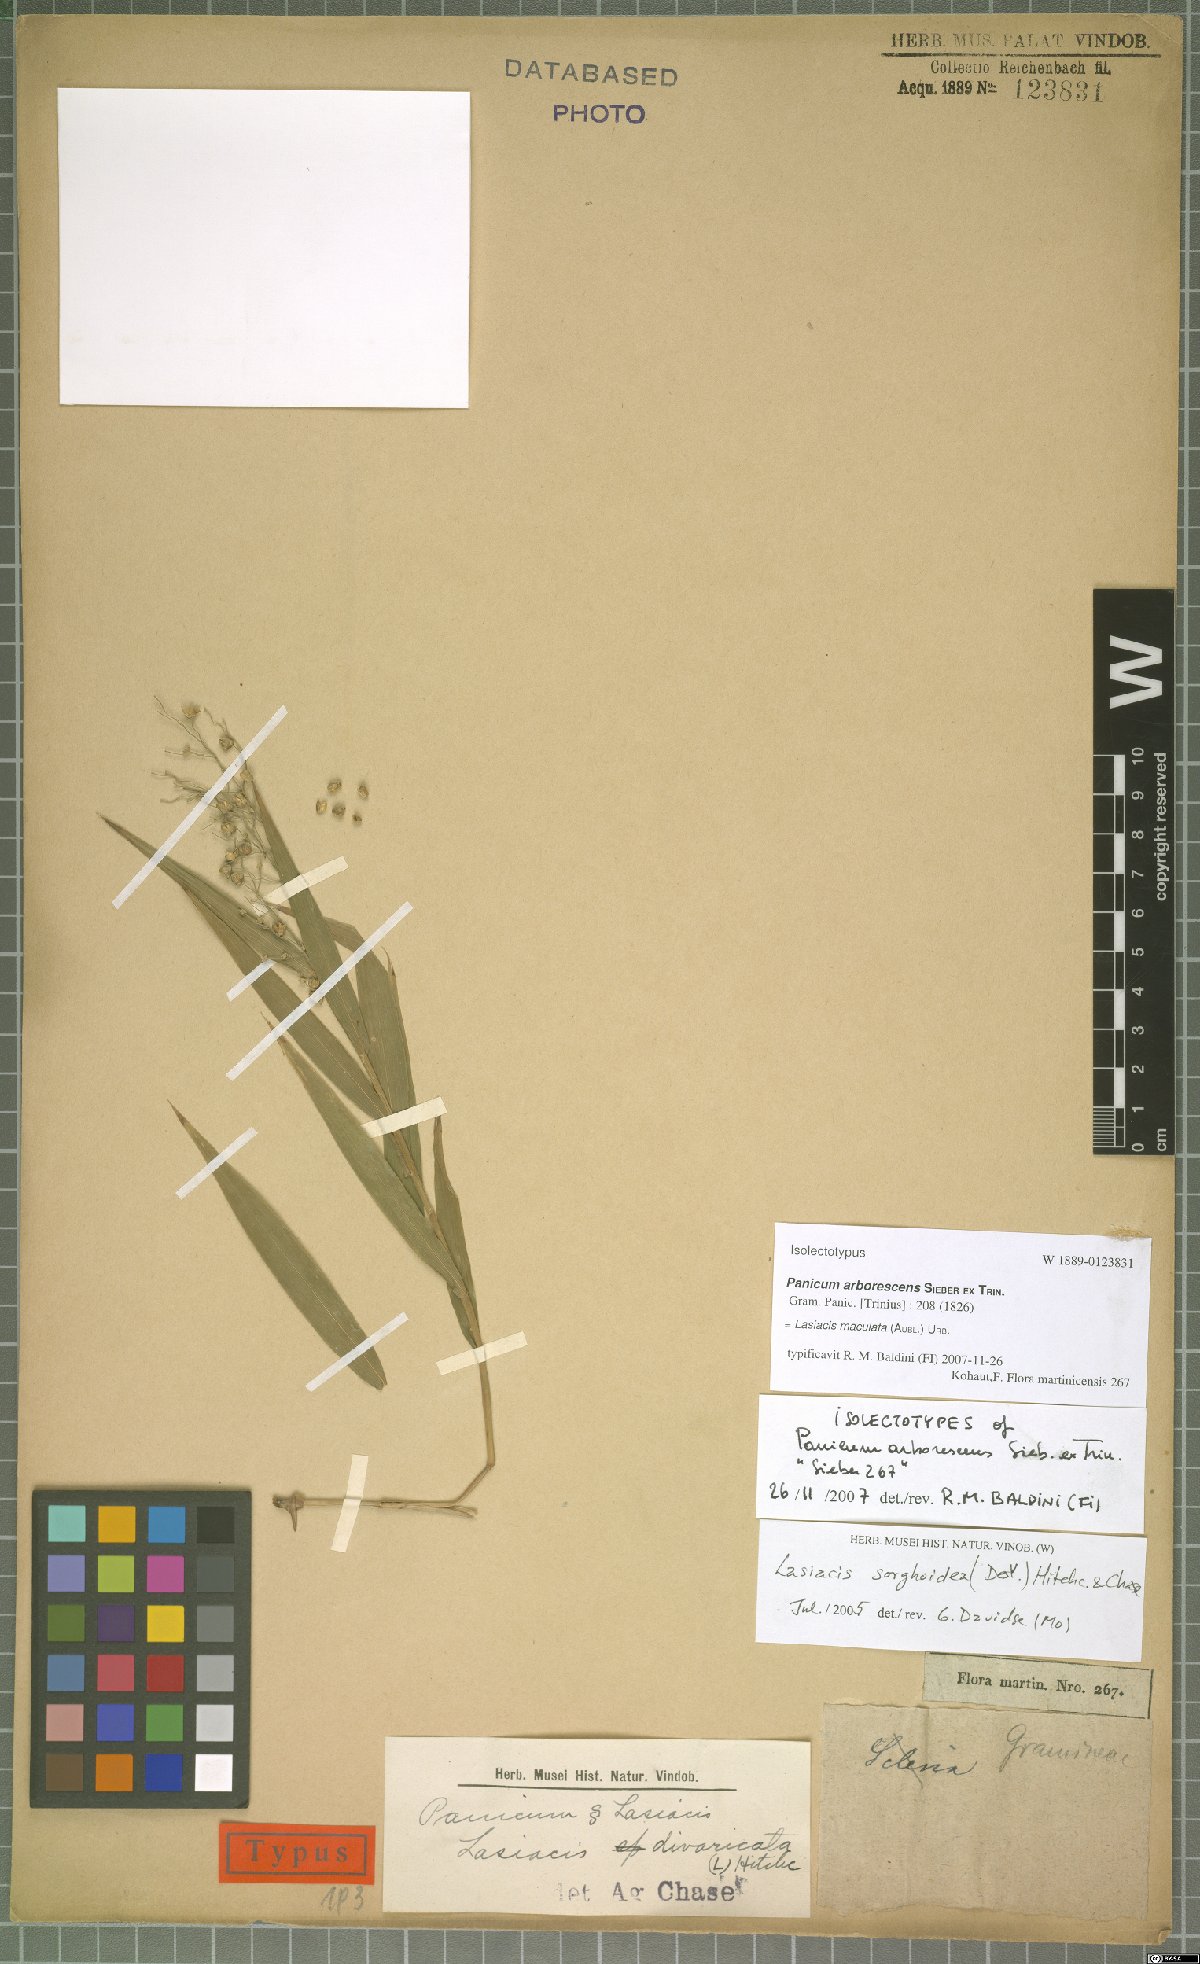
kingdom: Plantae
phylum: Tracheophyta
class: Liliopsida
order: Poales
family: Poaceae
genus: Lasiacis
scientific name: Lasiacis maculata
